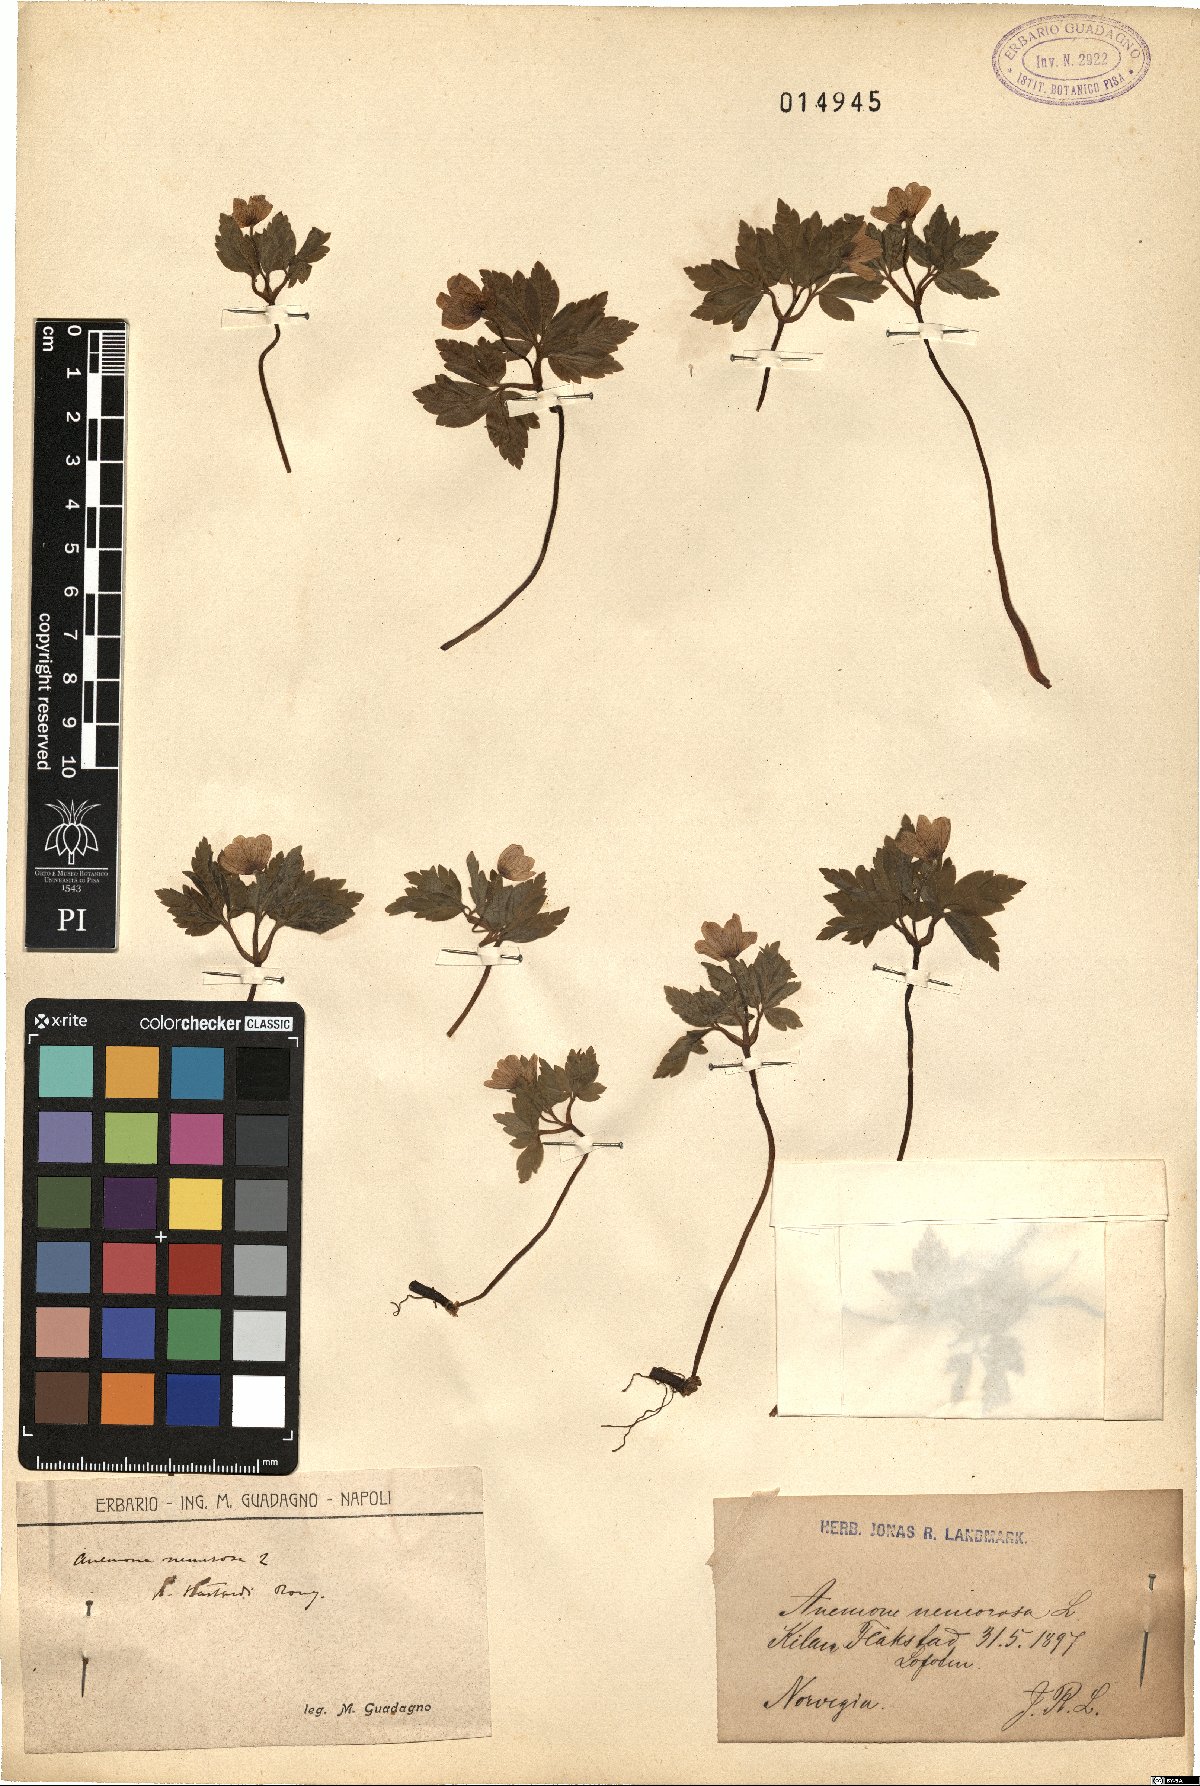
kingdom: Plantae
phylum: Tracheophyta
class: Magnoliopsida
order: Ranunculales
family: Ranunculaceae
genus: Anemone
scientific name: Anemone nemorosa
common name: Wood anemone
